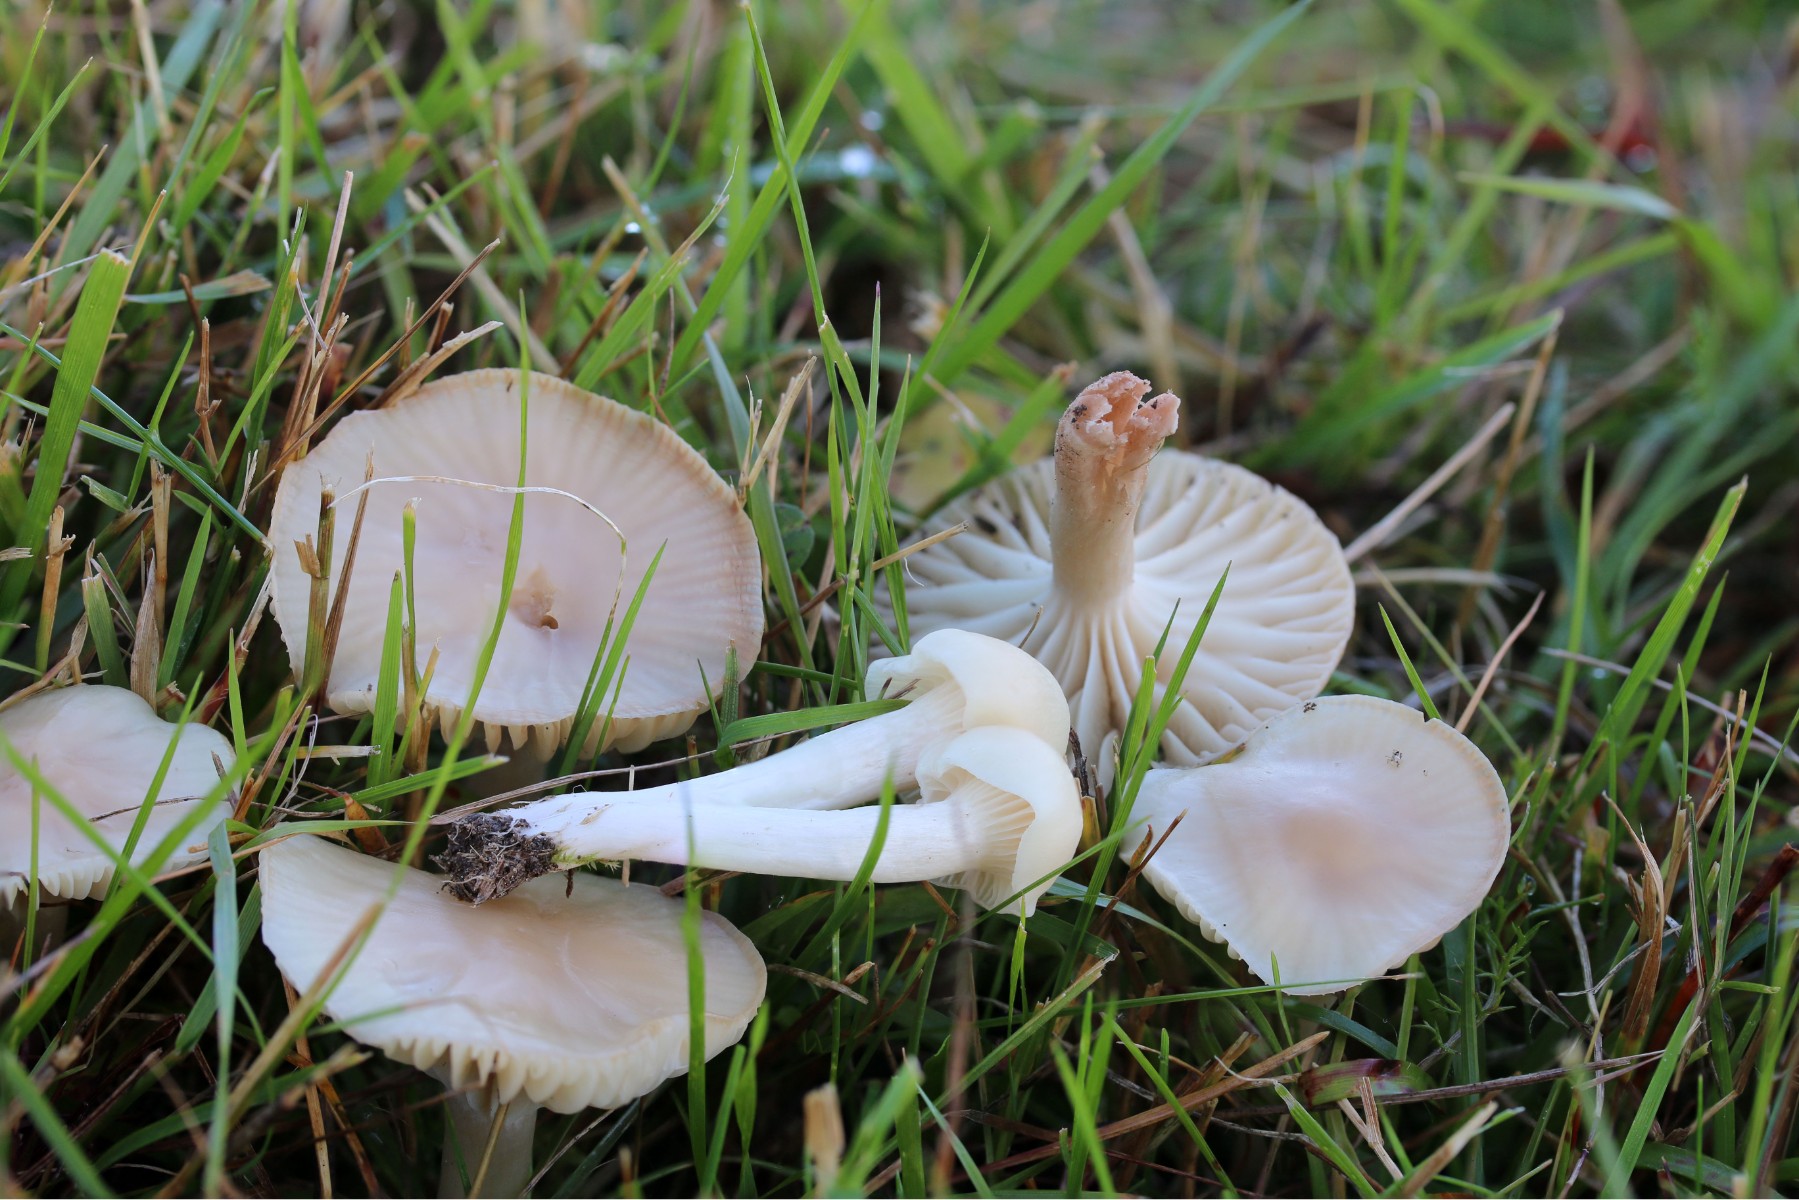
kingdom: Fungi
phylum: Basidiomycota
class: Agaricomycetes
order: Agaricales
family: Hygrophoraceae
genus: Cuphophyllus
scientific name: Cuphophyllus virgineus
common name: isabella-vokshat
